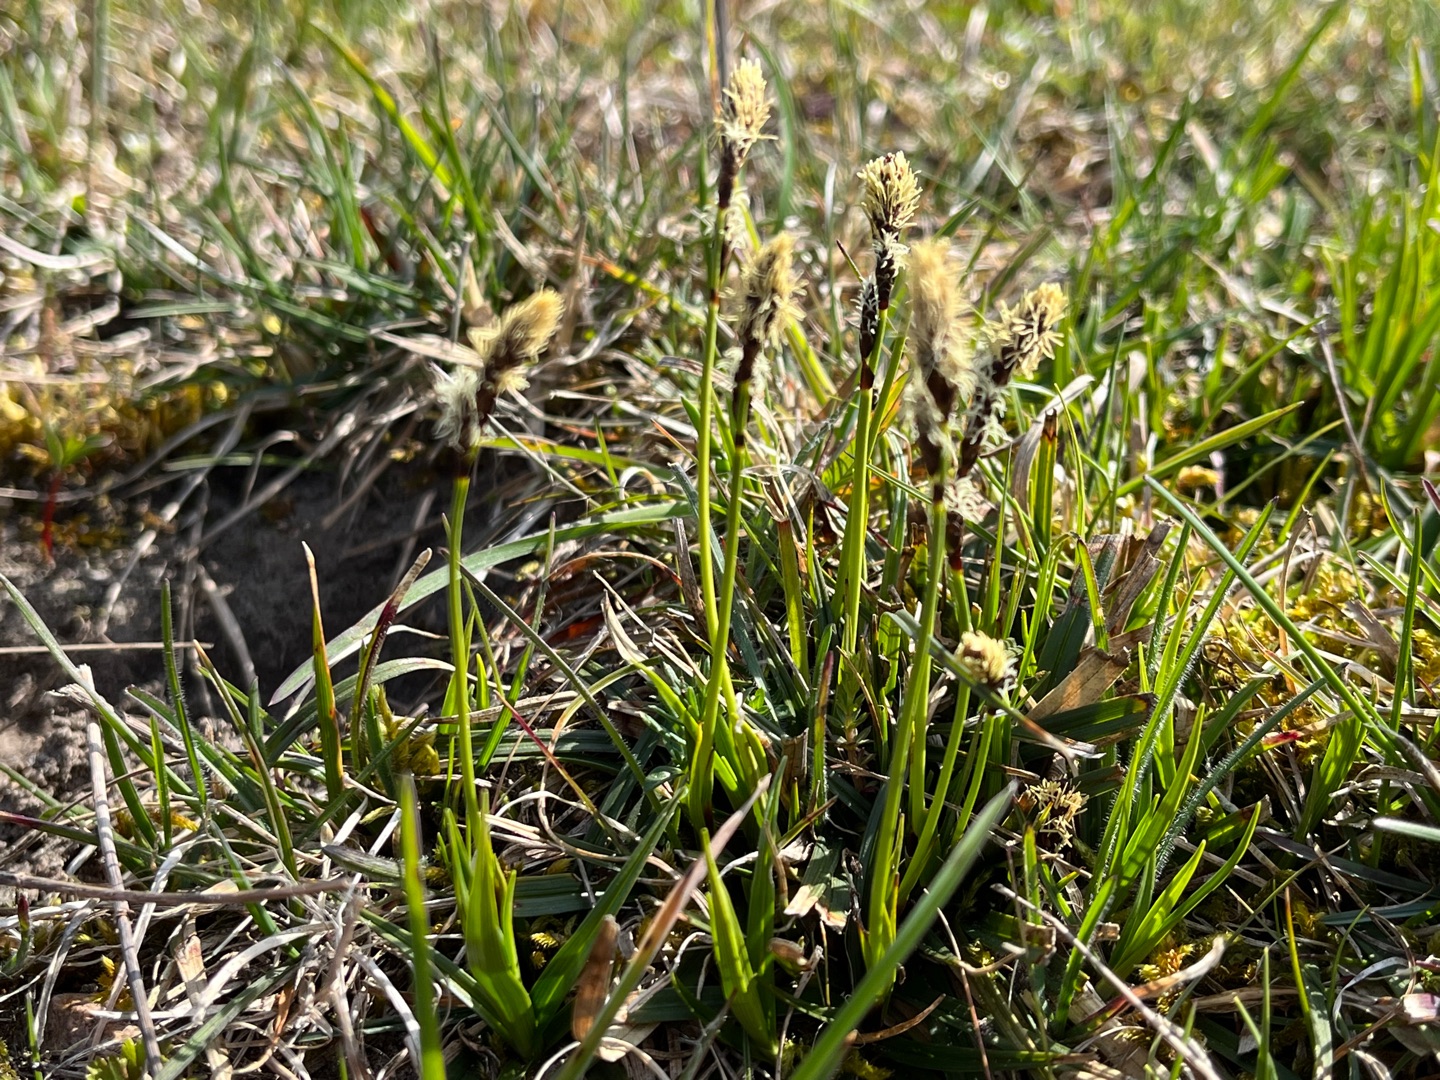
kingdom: Plantae
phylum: Tracheophyta
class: Liliopsida
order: Poales
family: Cyperaceae
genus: Carex
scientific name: Carex ericetorum
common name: Lyng-star
